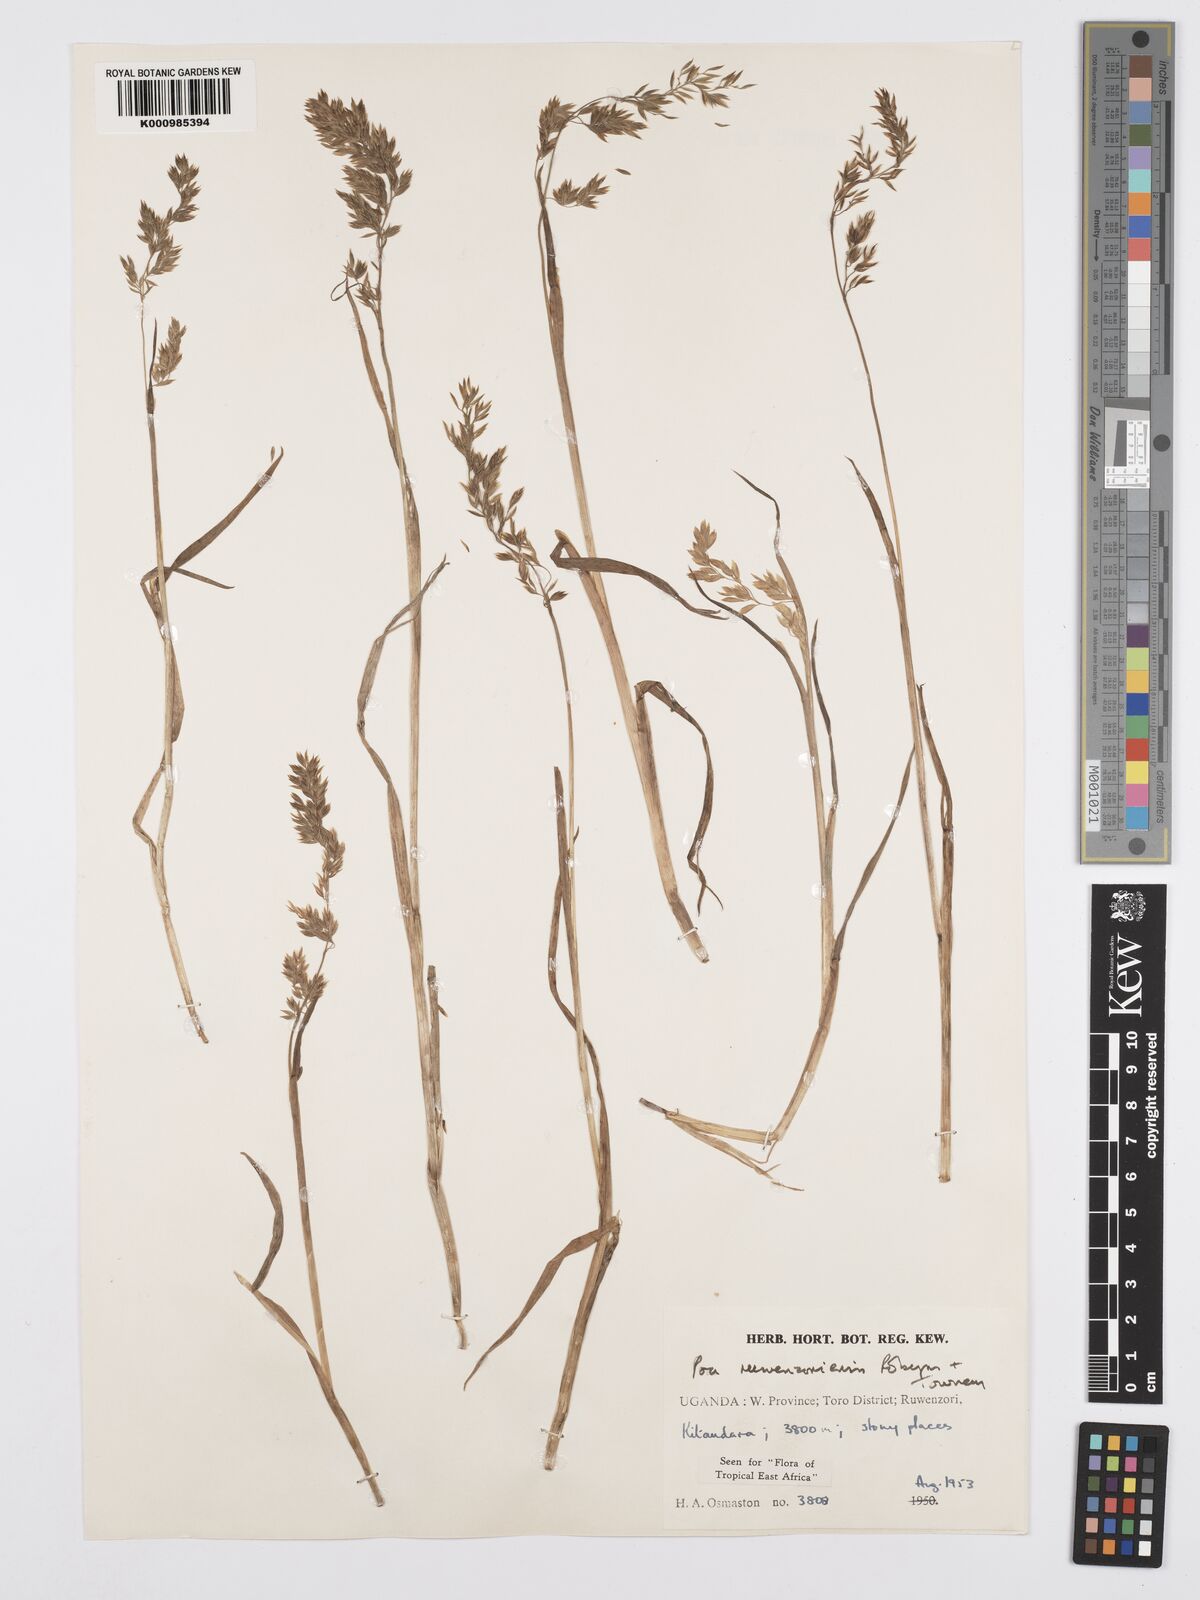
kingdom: Plantae
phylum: Tracheophyta
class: Liliopsida
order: Poales
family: Poaceae
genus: Poa
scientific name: Poa ruwenzoriensis
